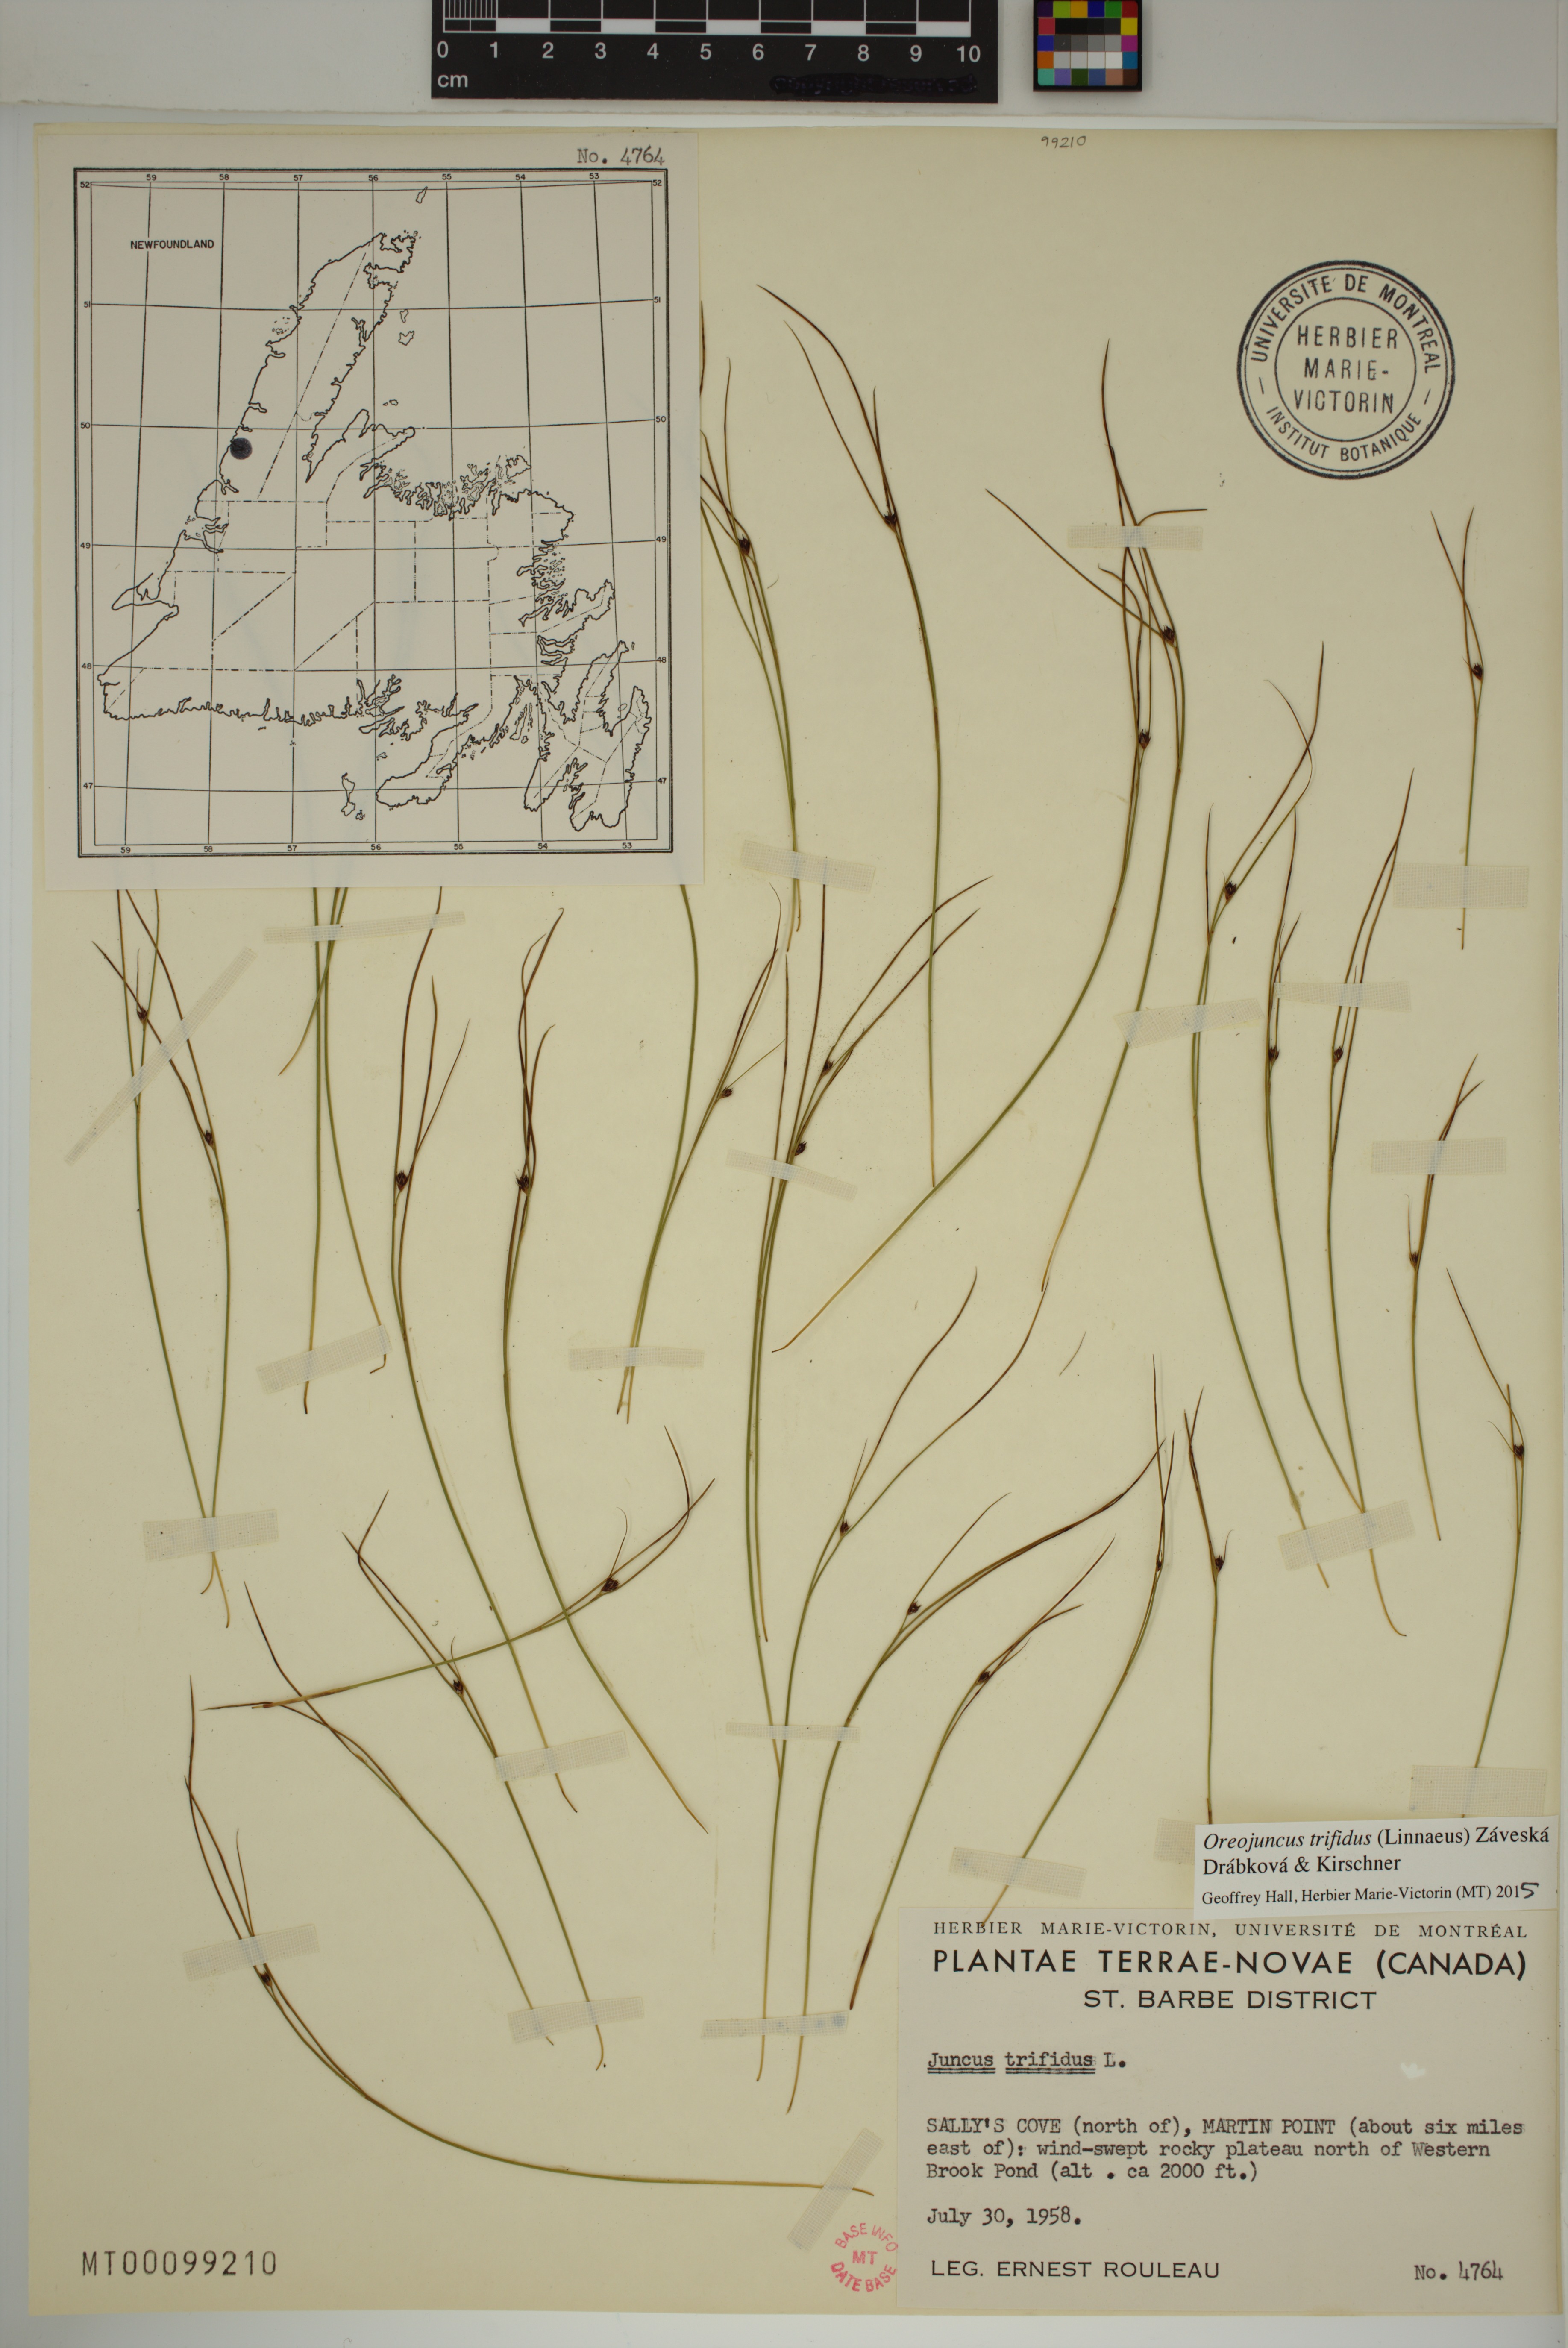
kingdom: Plantae
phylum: Tracheophyta
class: Liliopsida
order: Poales
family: Juncaceae
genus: Oreojuncus
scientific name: Oreojuncus trifidus
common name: Highland rush
